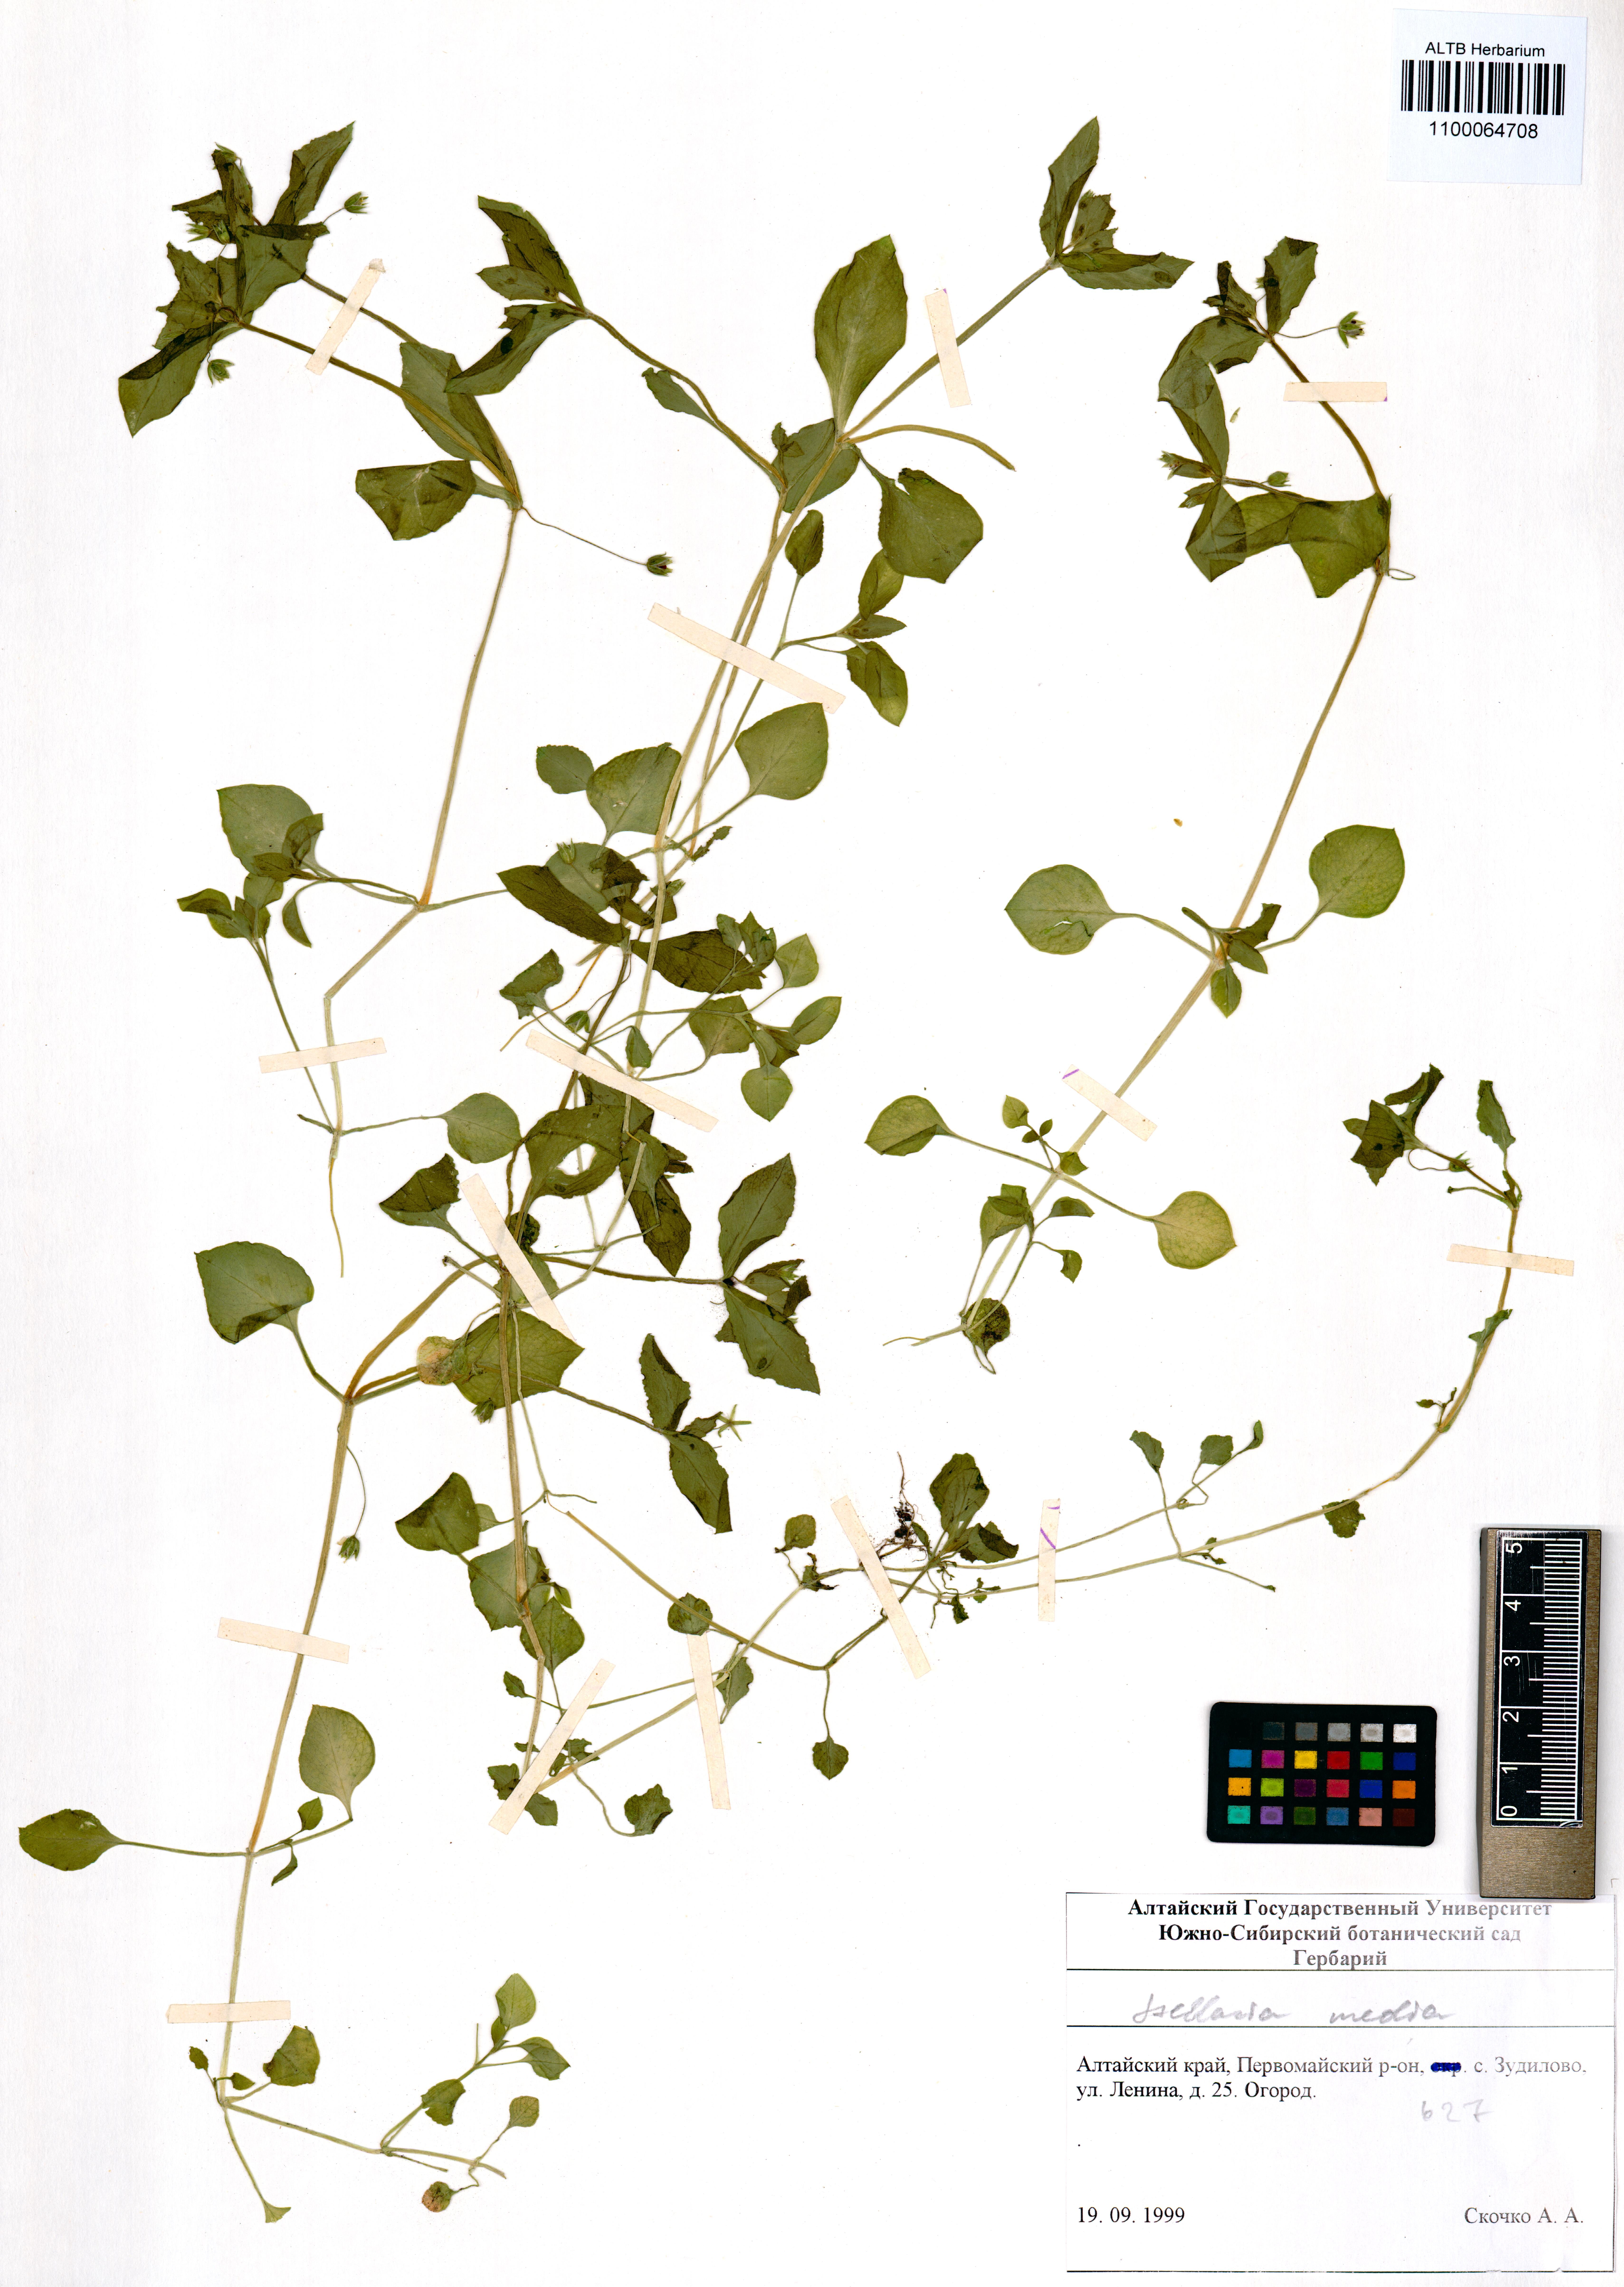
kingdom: Plantae
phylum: Tracheophyta
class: Magnoliopsida
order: Caryophyllales
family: Caryophyllaceae
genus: Stellaria
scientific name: Stellaria media
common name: Common chickweed
